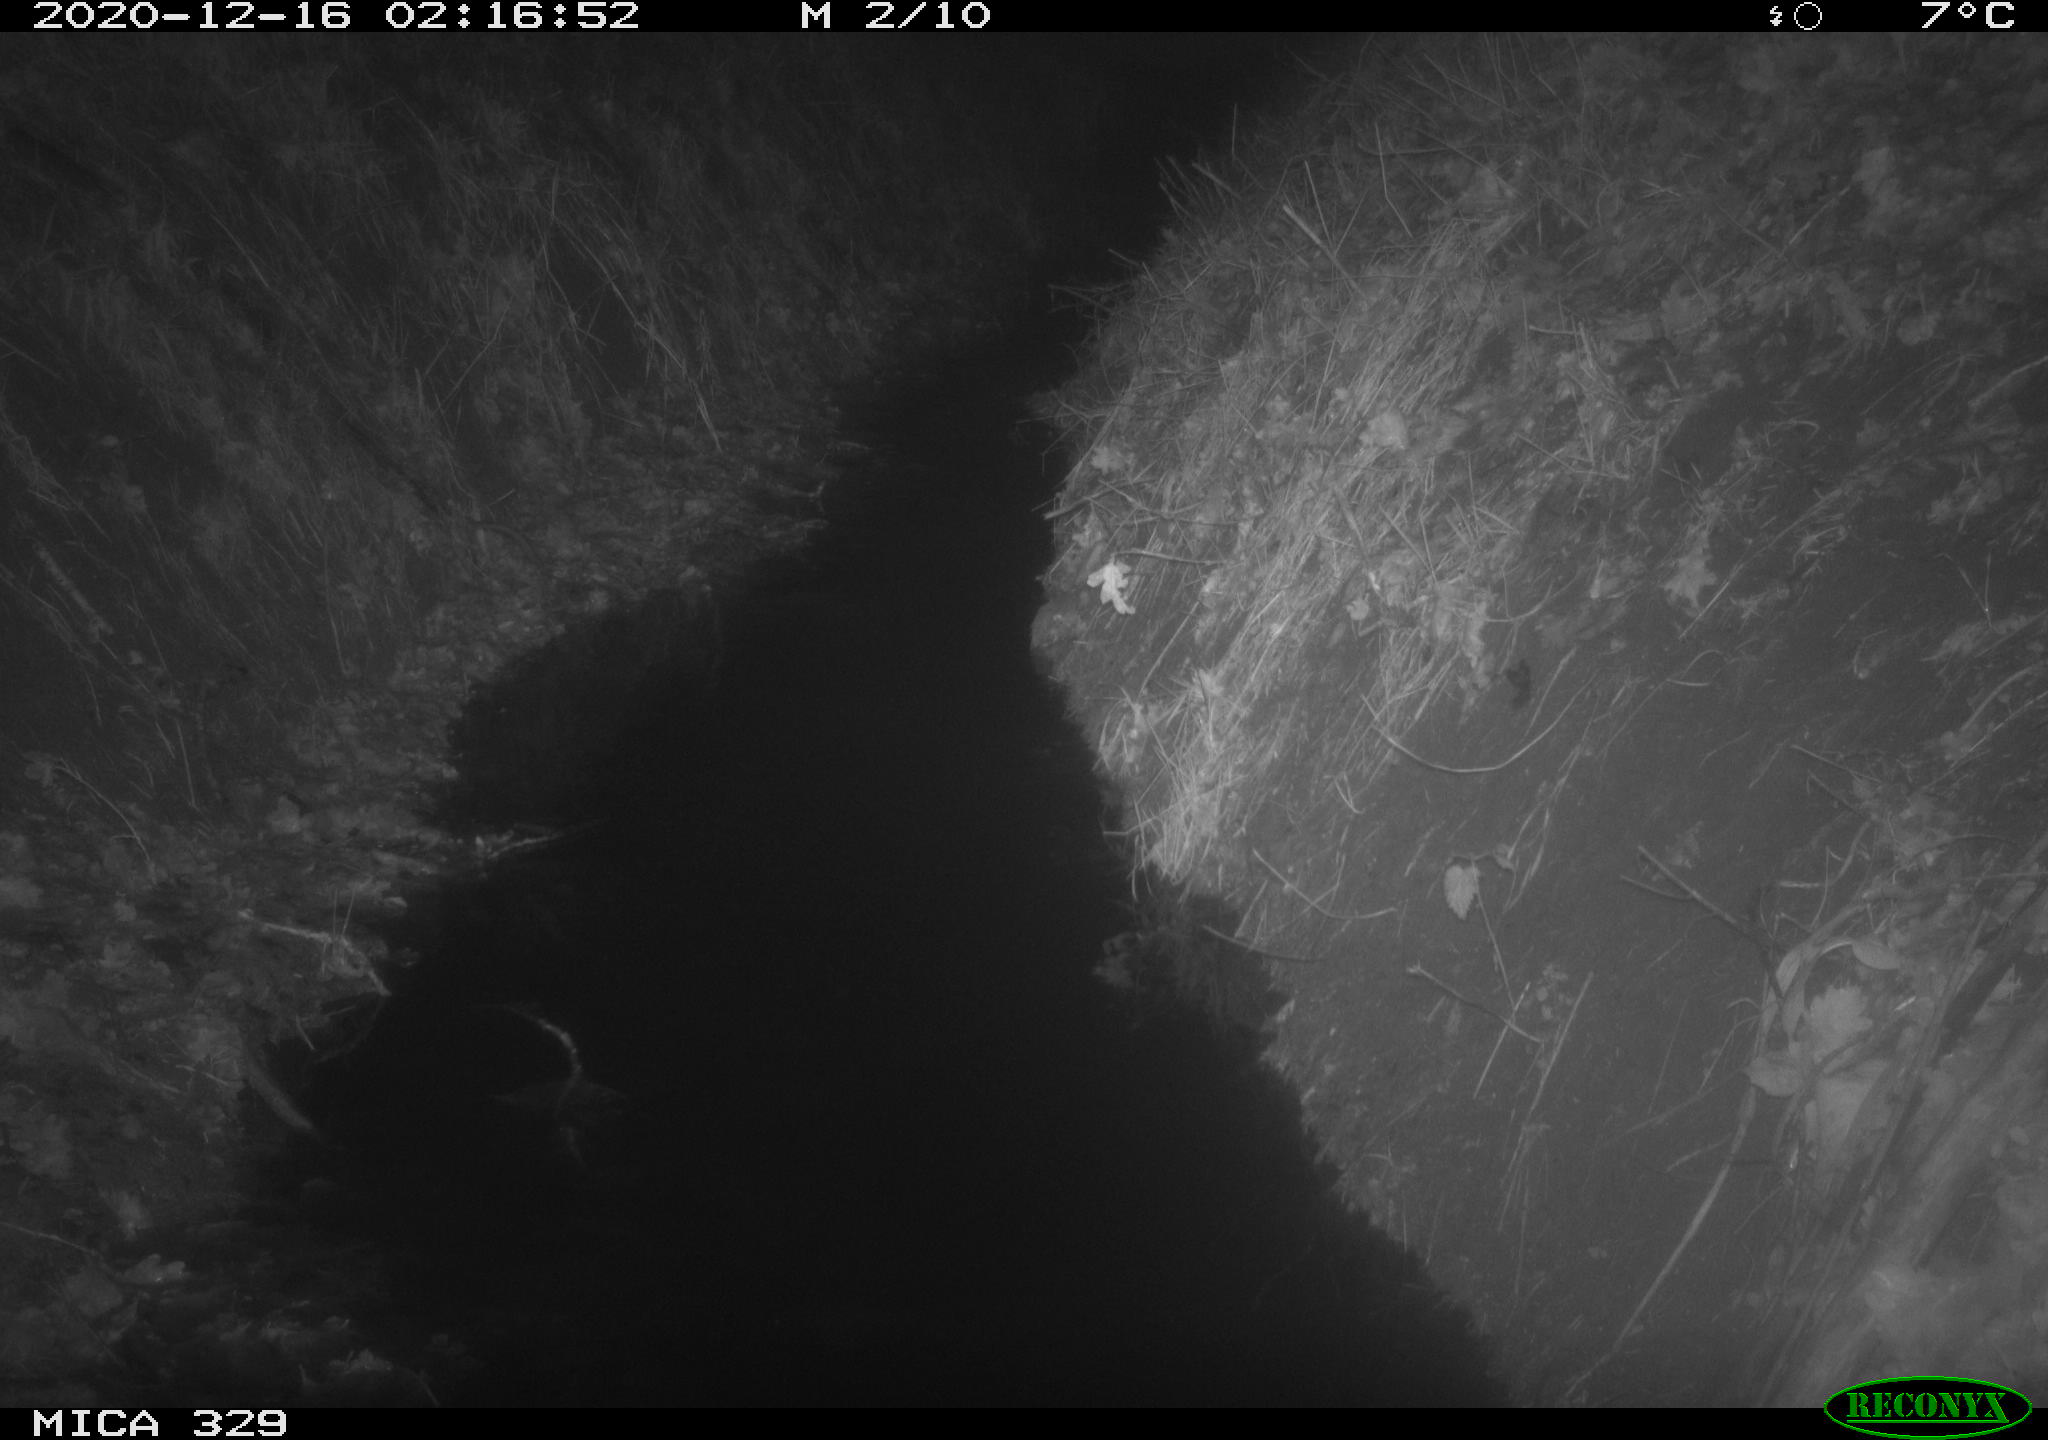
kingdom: Animalia
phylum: Chordata
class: Mammalia
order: Rodentia
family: Muridae
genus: Rattus
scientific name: Rattus norvegicus
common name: Brown rat
